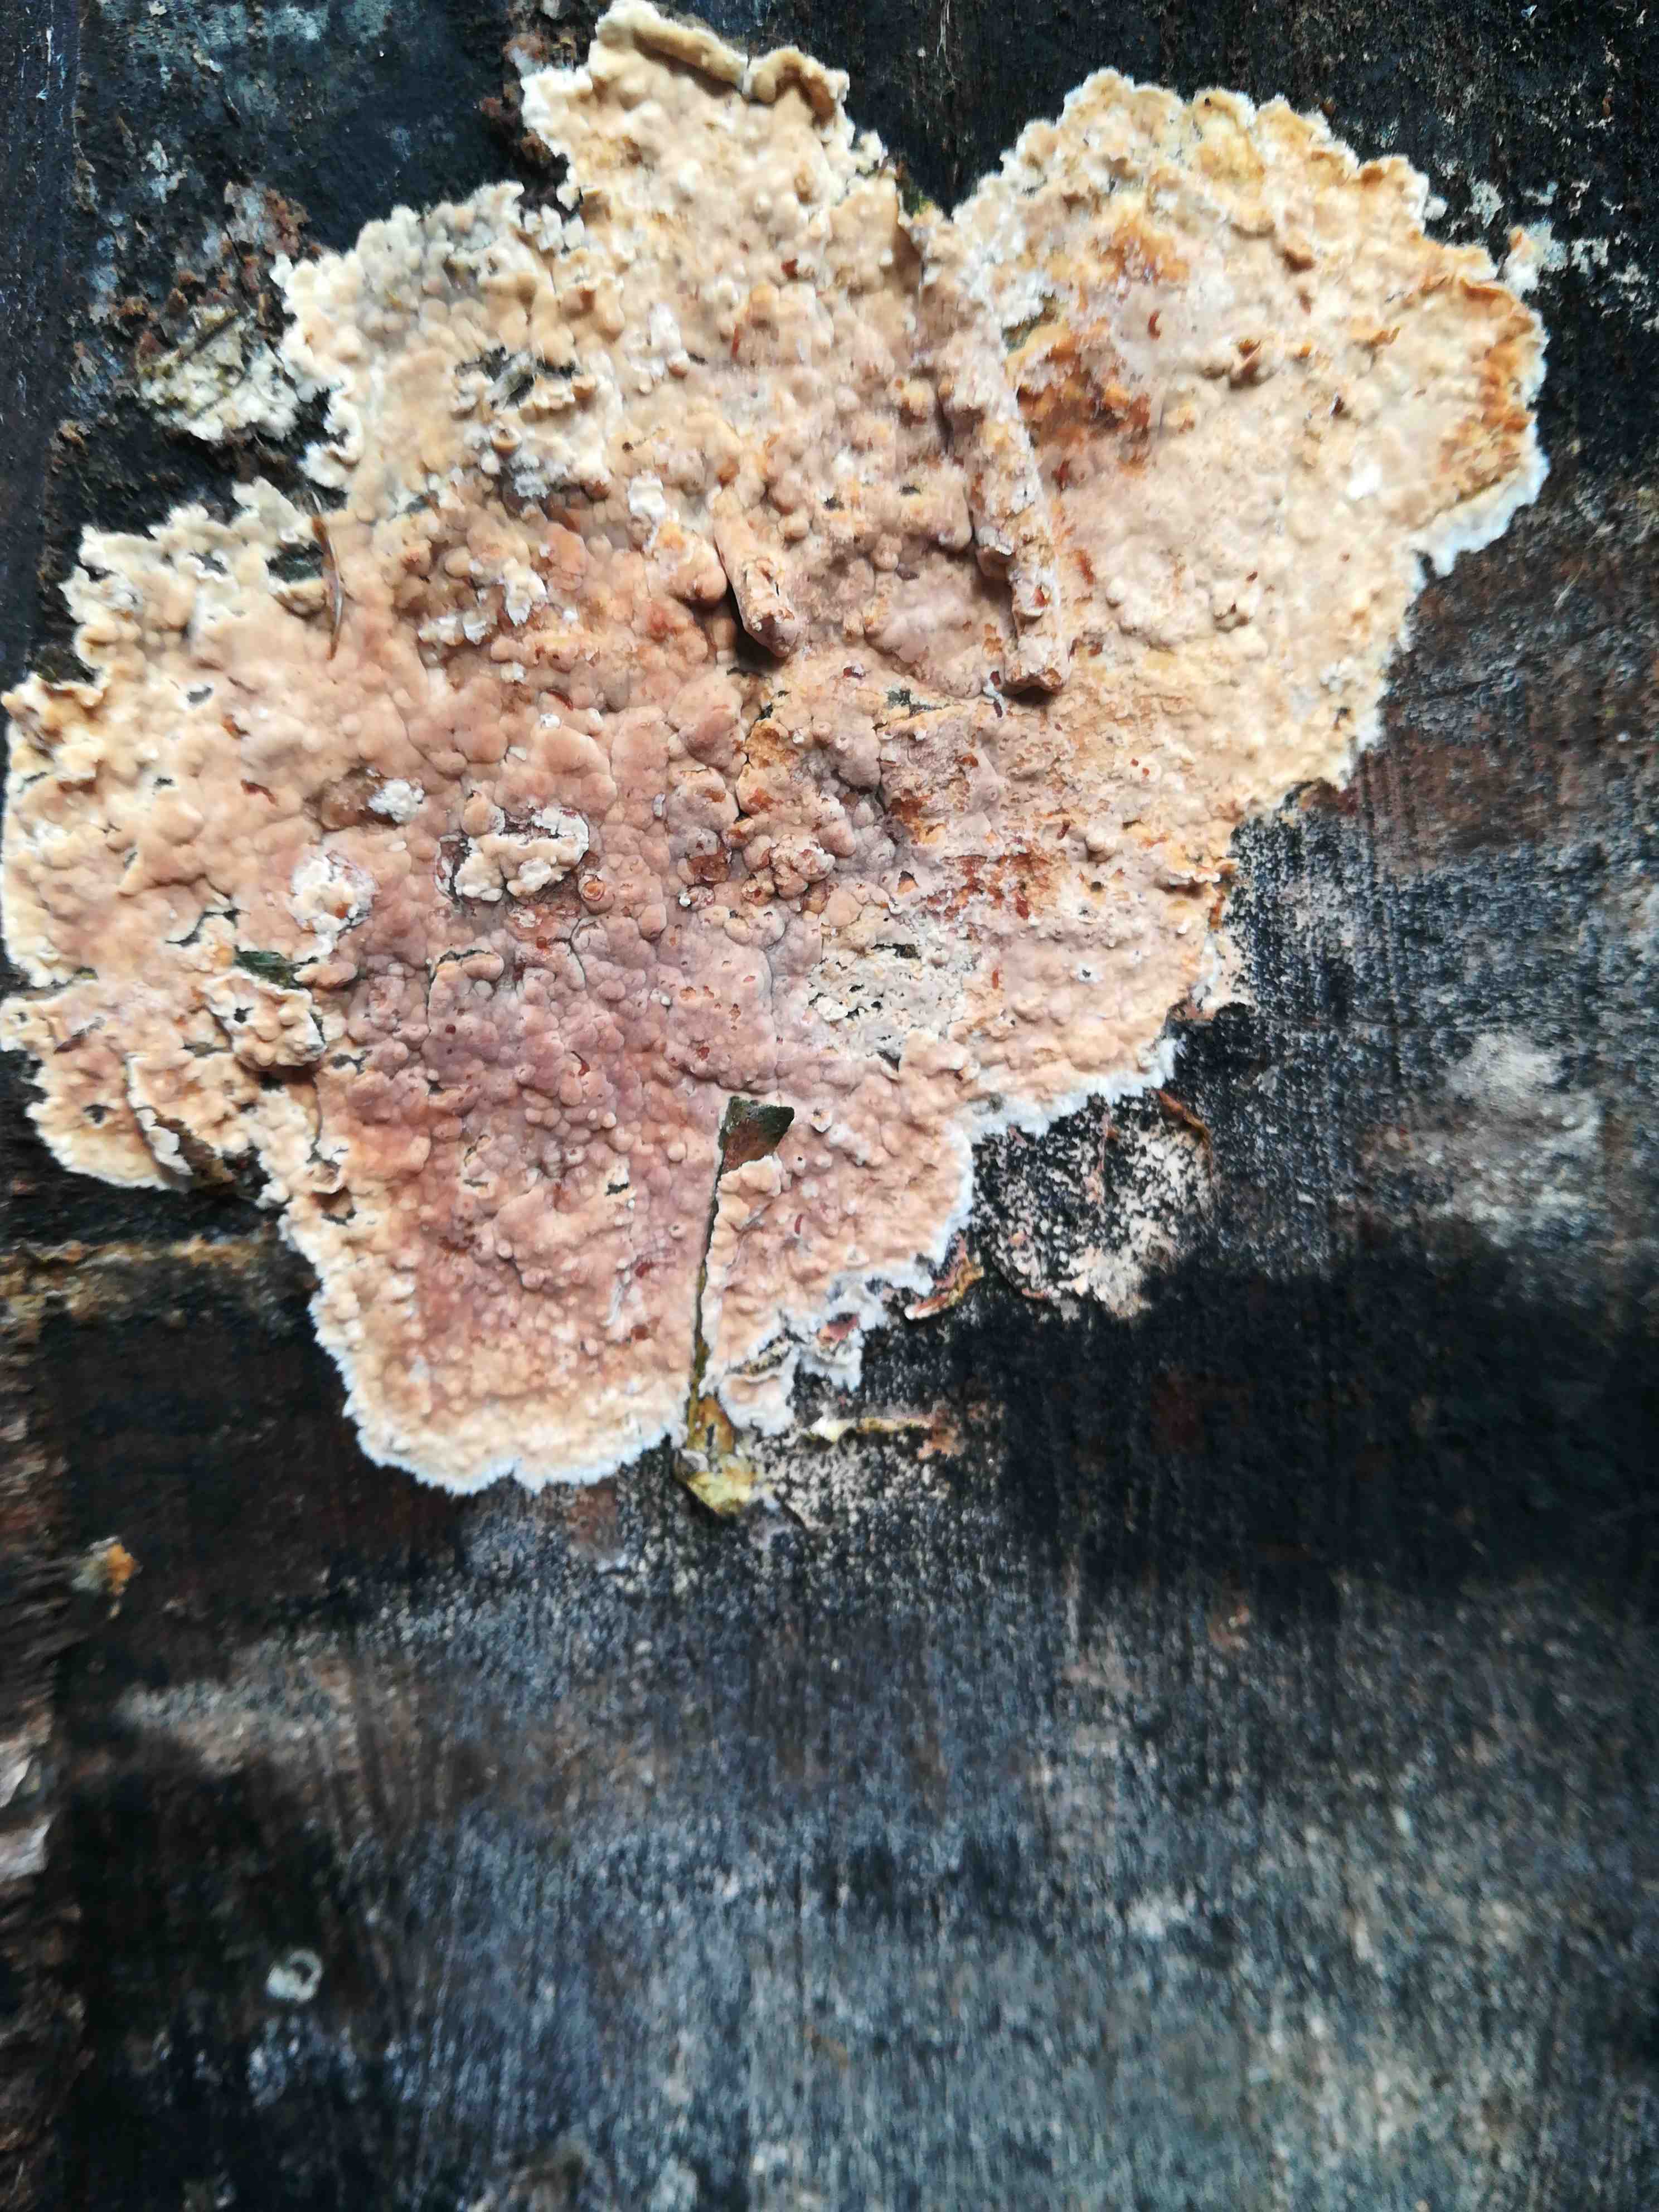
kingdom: Fungi
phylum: Basidiomycota
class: Agaricomycetes
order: Agaricales
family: Physalacriaceae
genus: Cylindrobasidium
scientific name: Cylindrobasidium evolvens
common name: sprækkehinde
